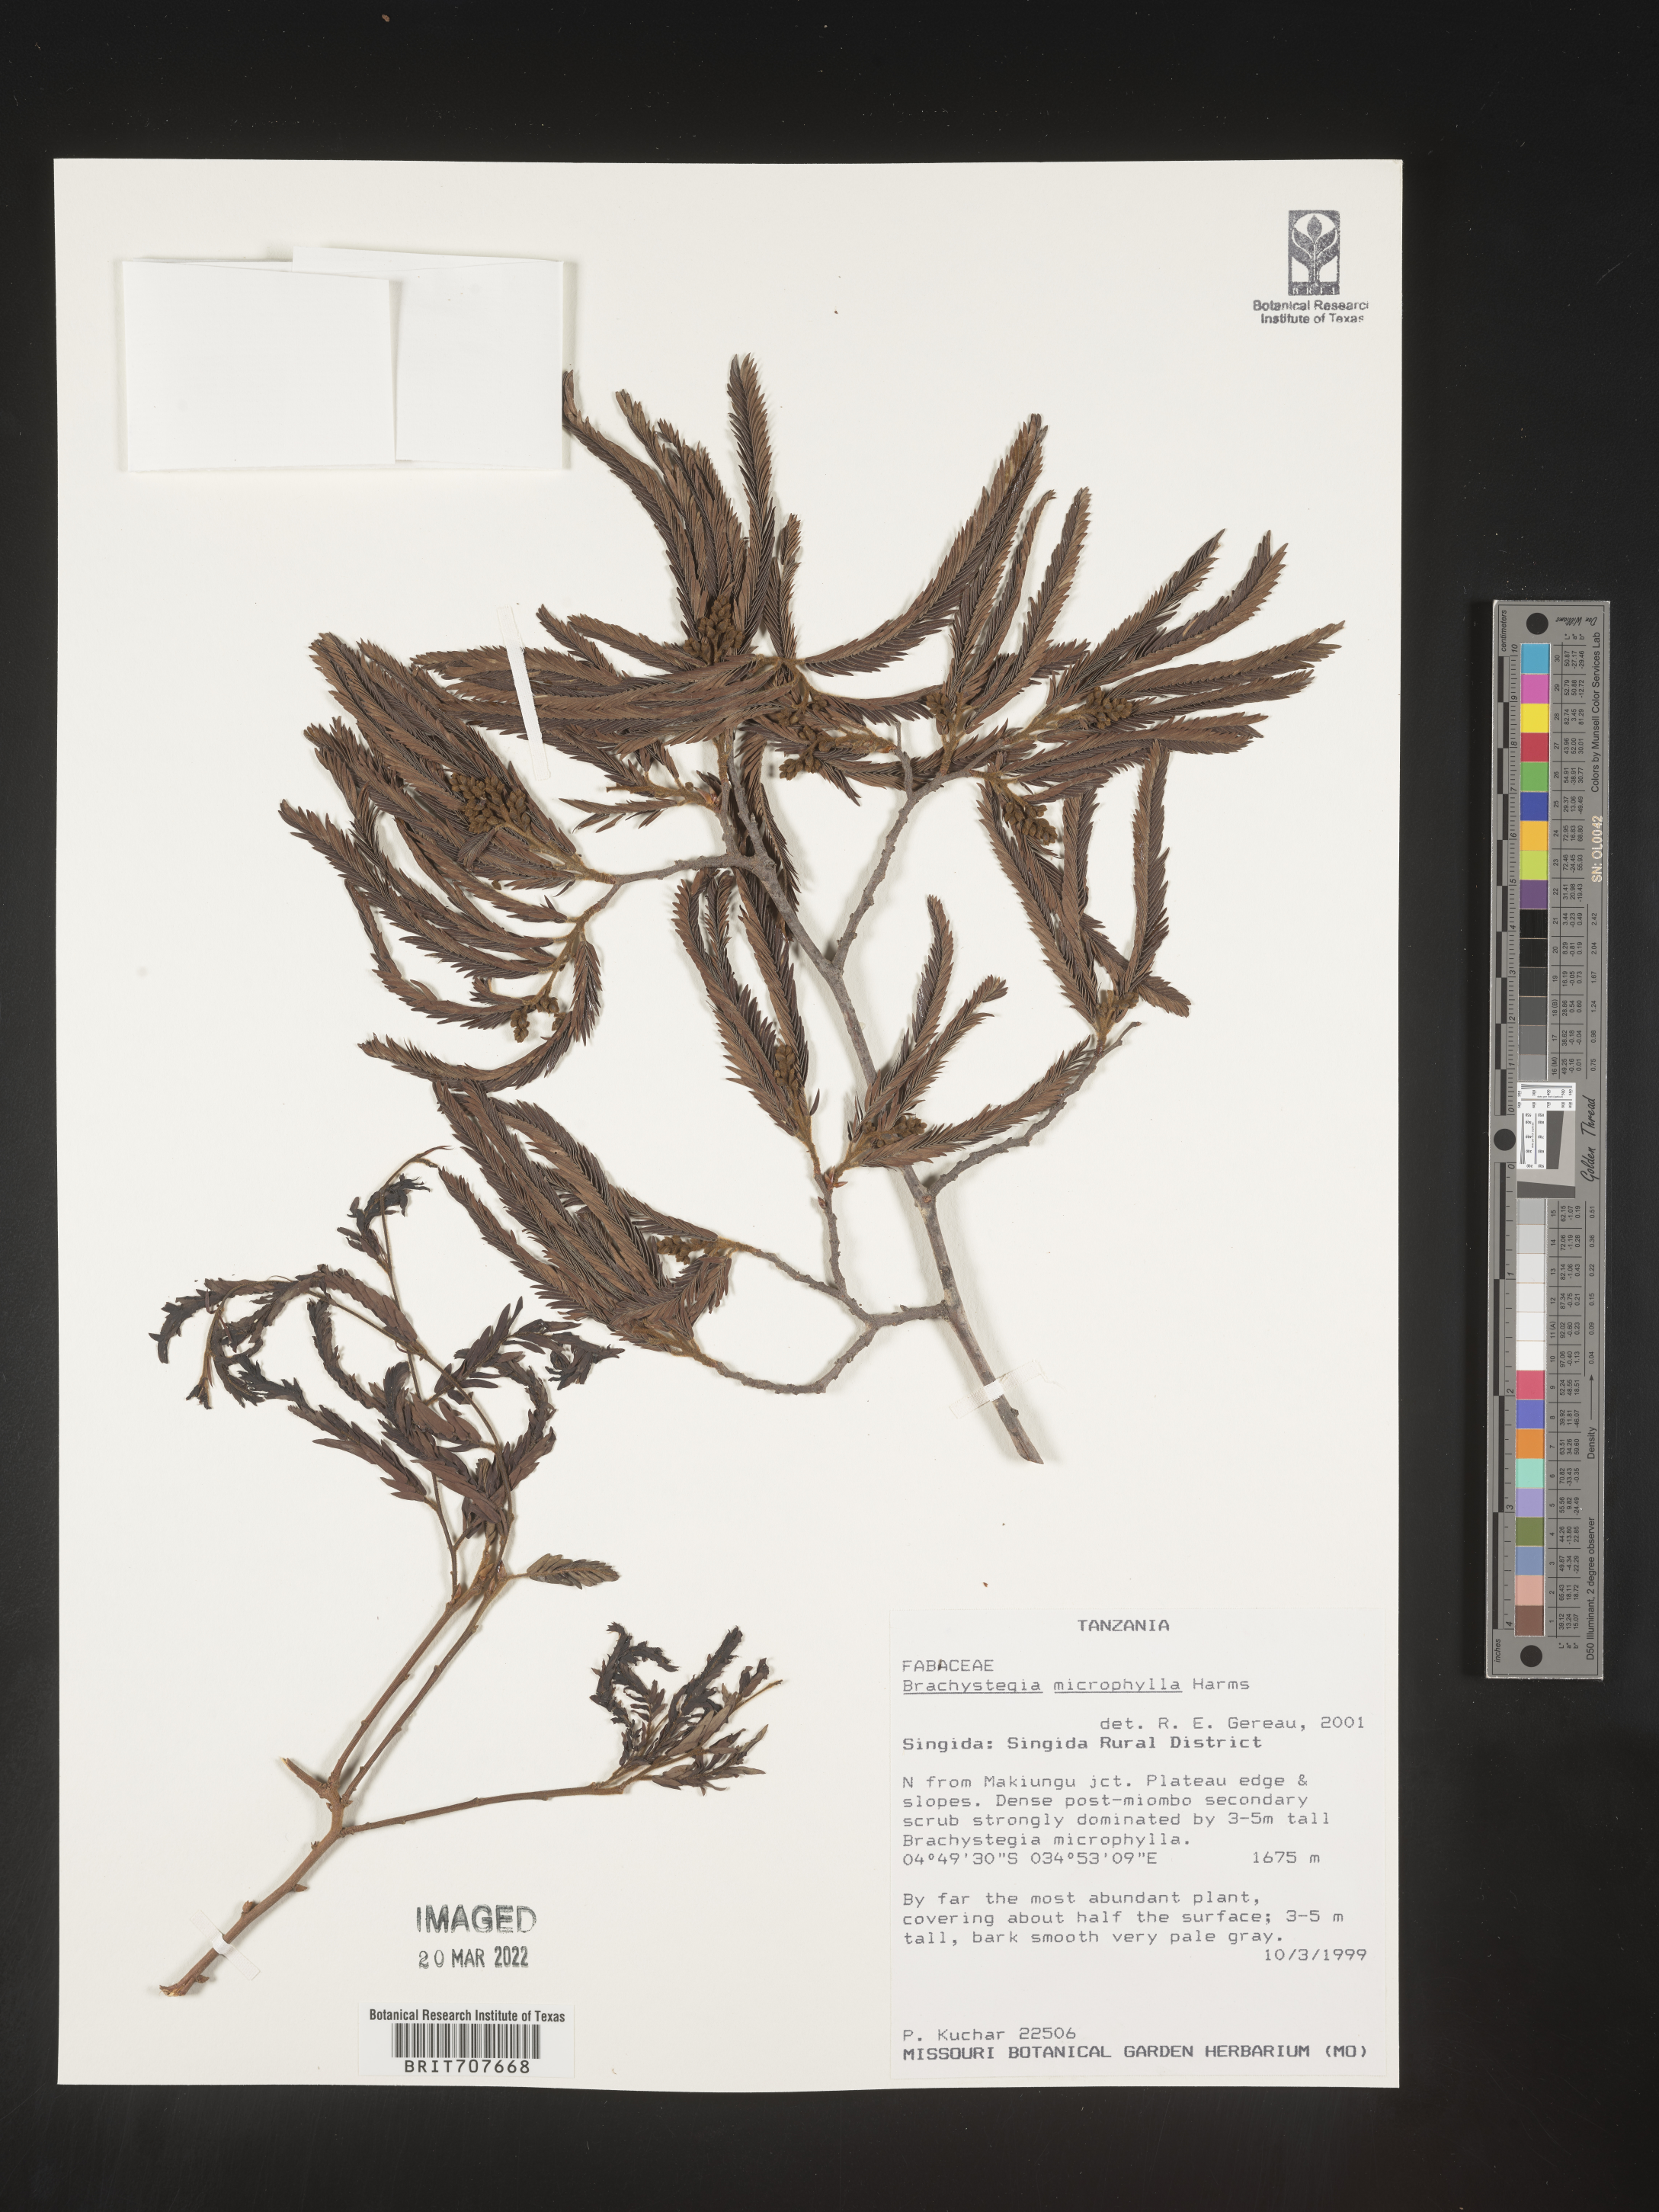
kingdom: Plantae
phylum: Tracheophyta
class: Magnoliopsida
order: Fabales
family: Fabaceae
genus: Brachystegia
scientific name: Brachystegia
